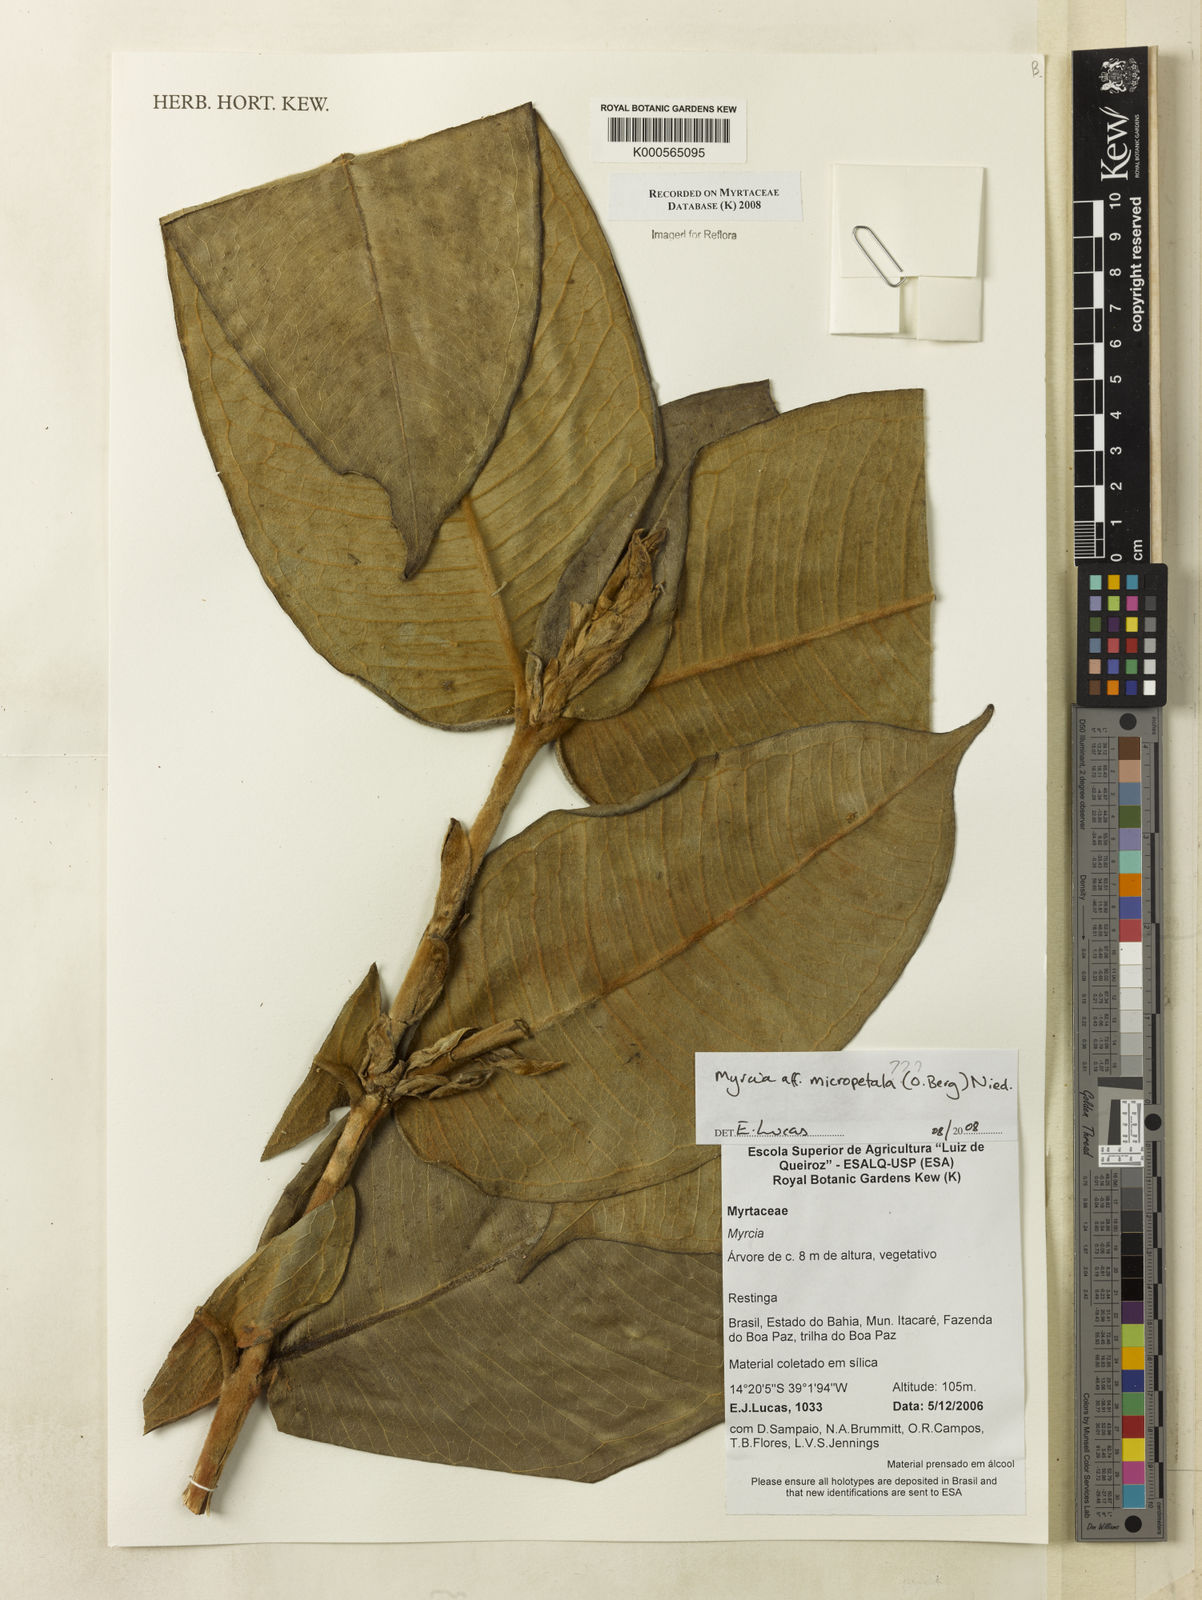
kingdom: Plantae
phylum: Tracheophyta
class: Magnoliopsida
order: Myrtales
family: Myrtaceae
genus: Myrcia
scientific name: Myrcia micropetala
